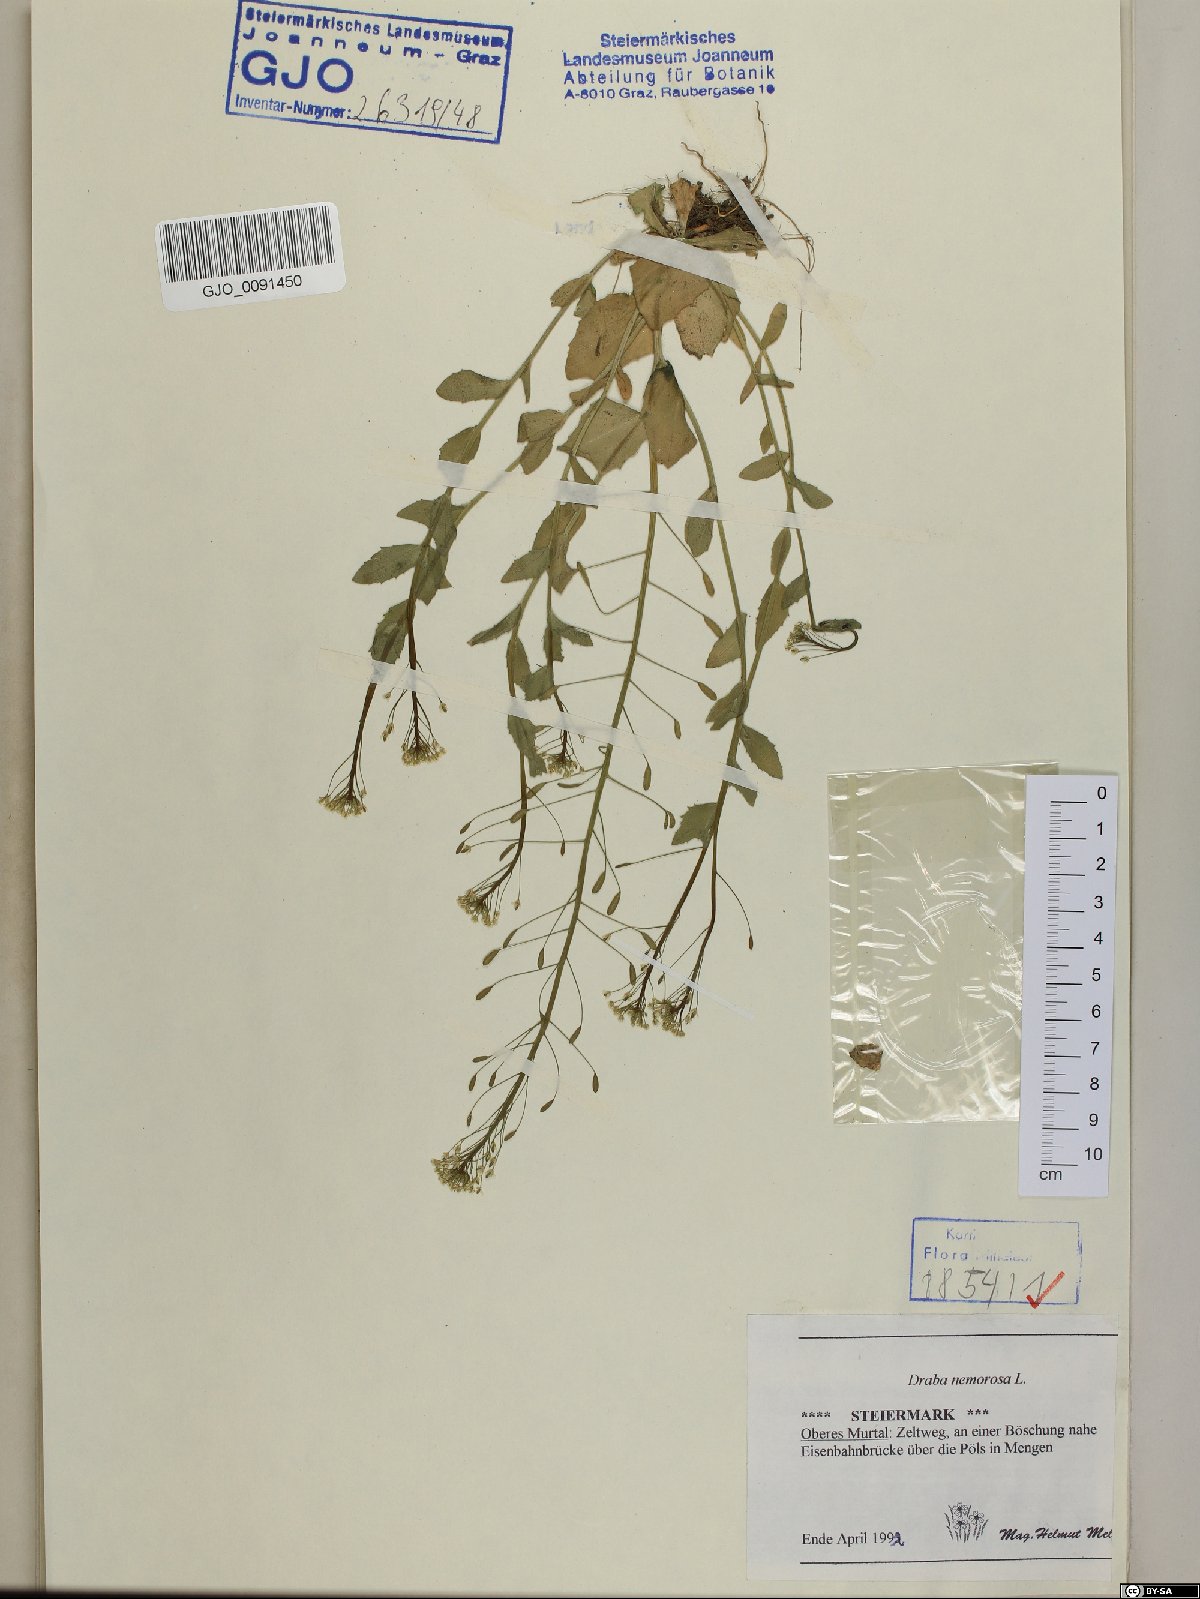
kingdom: Plantae
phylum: Tracheophyta
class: Magnoliopsida
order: Brassicales
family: Brassicaceae
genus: Draba
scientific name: Draba nemorosa
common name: Wood whitlow-grass
